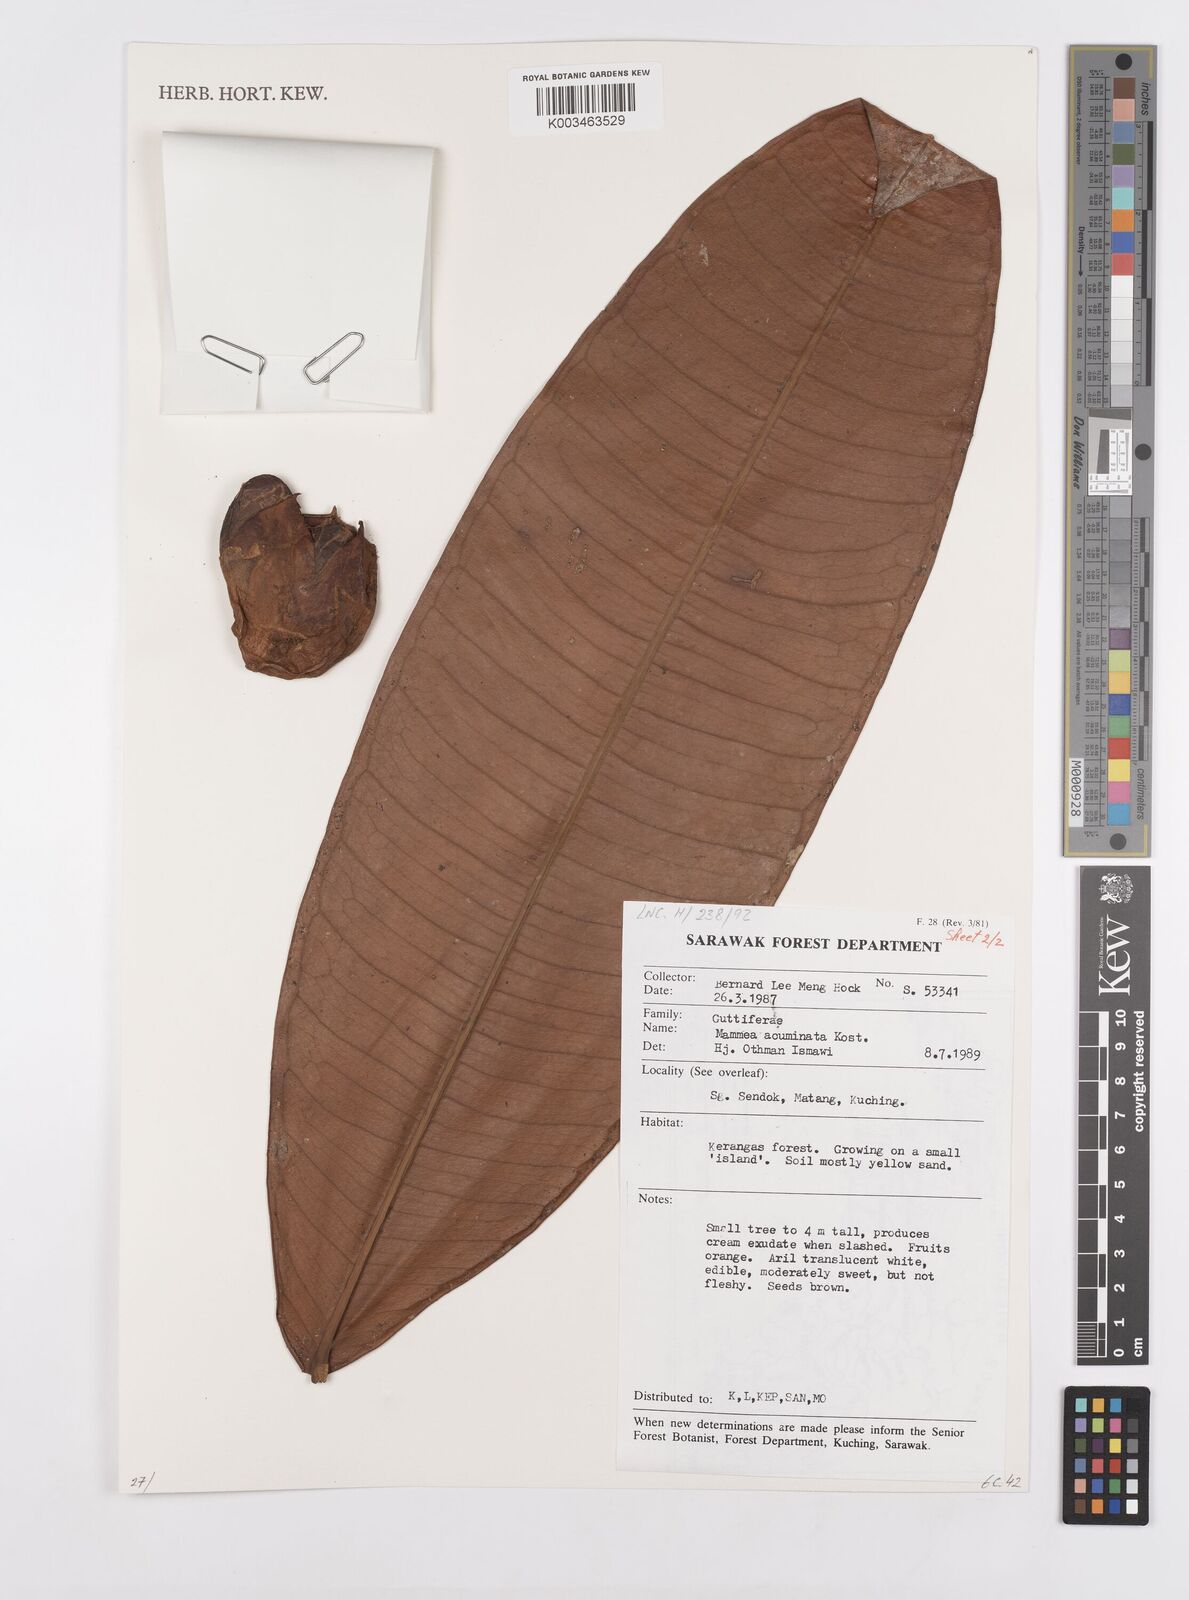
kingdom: Plantae
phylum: Tracheophyta
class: Magnoliopsida
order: Malpighiales
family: Calophyllaceae
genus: Mammea
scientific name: Mammea acuminata
